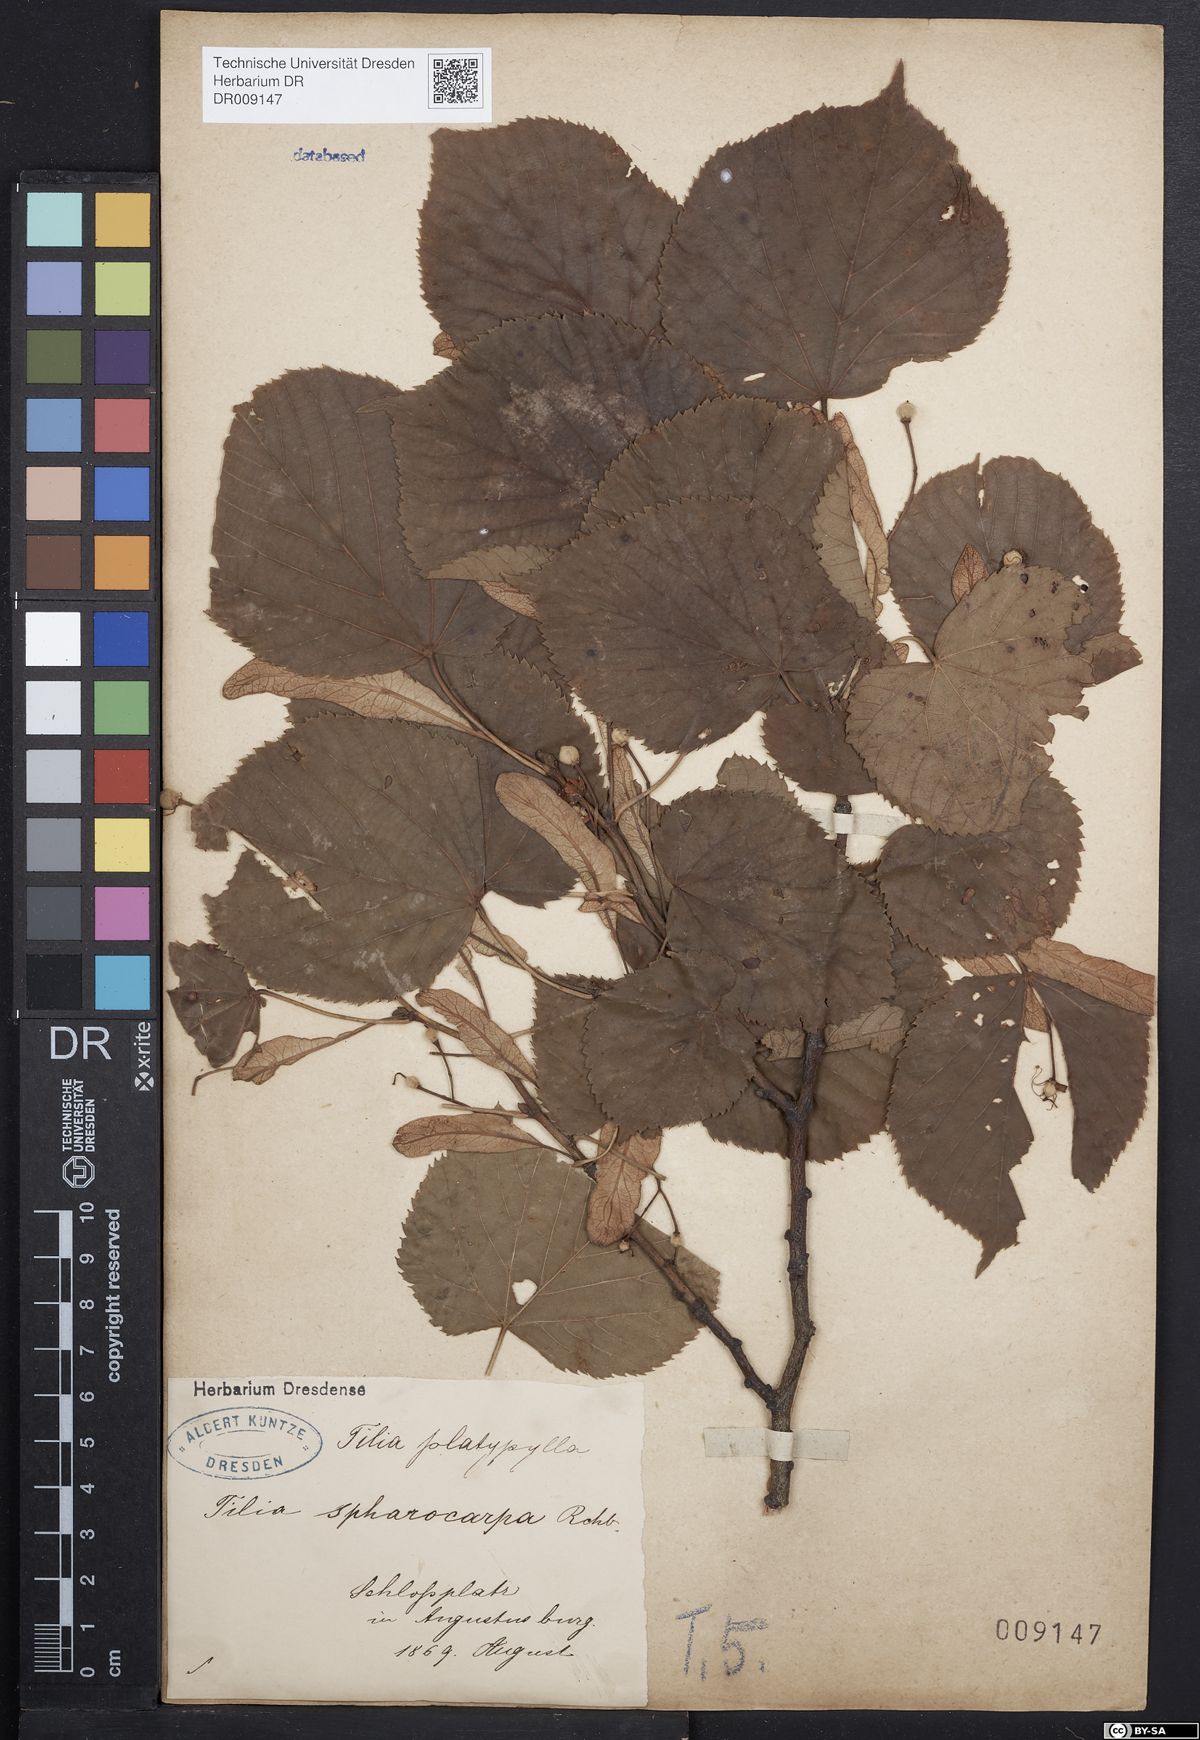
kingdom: Plantae
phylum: Tracheophyta
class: Magnoliopsida
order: Malvales
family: Malvaceae
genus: Tilia
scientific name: Tilia platyphyllos
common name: Large-leaved lime
